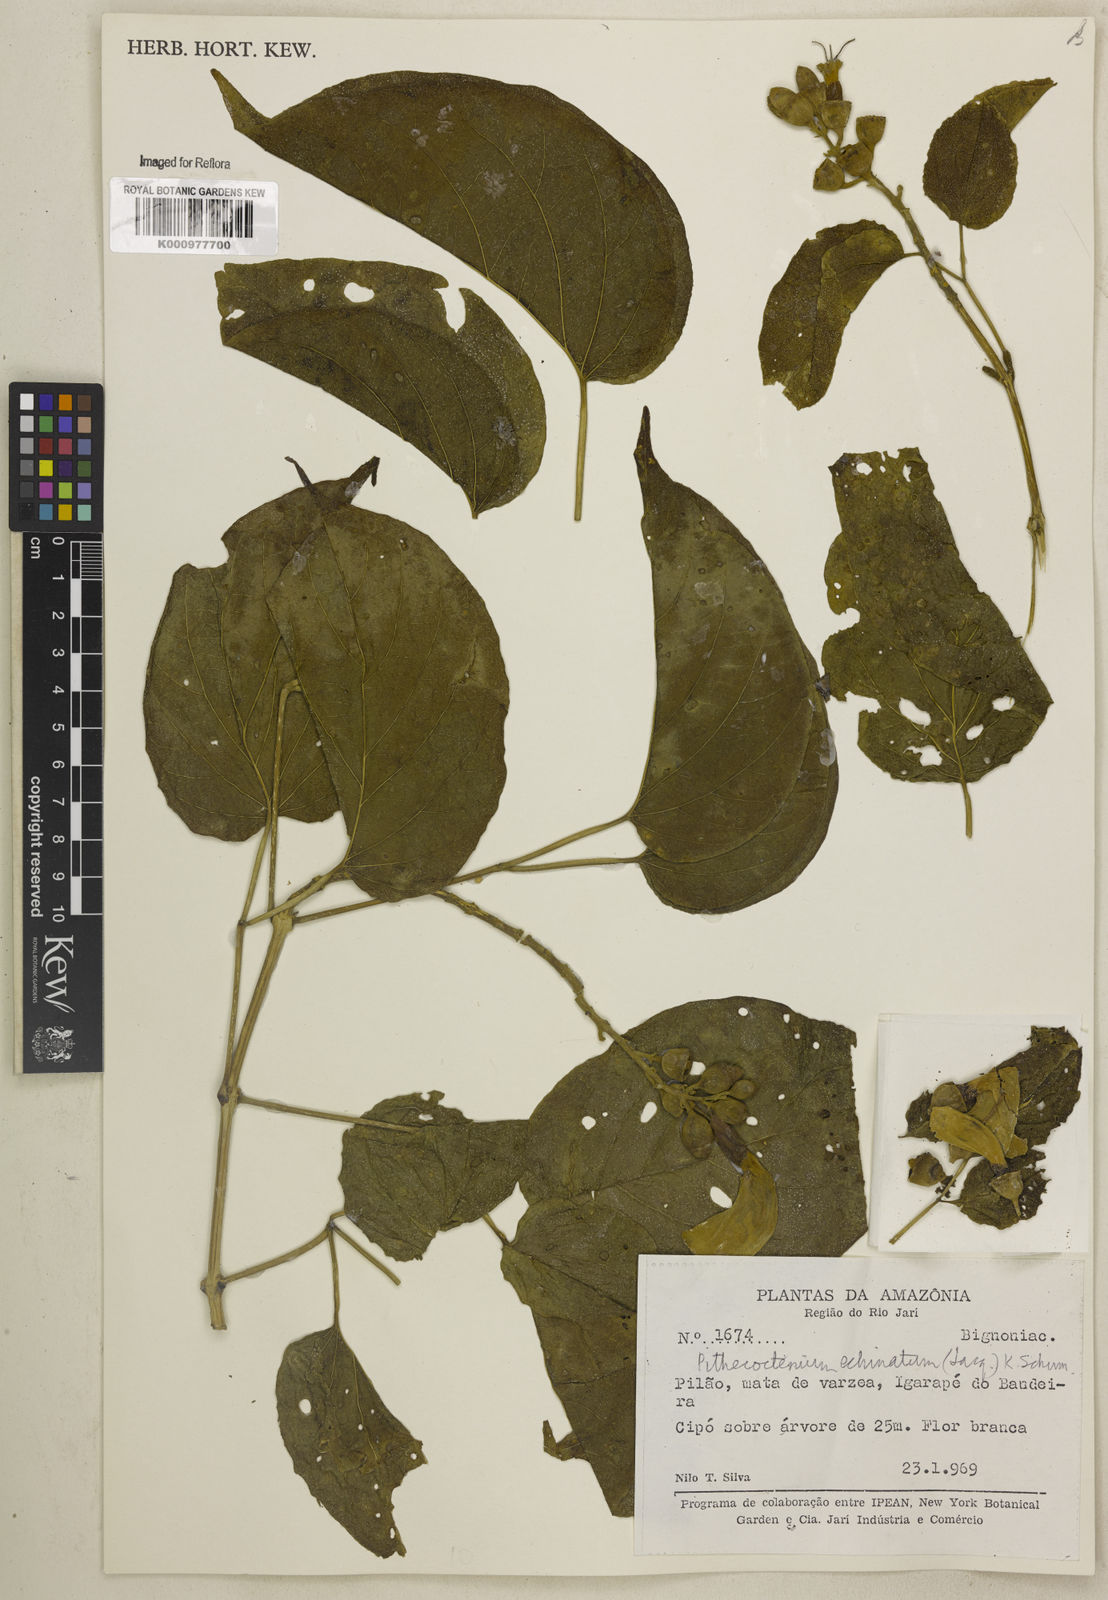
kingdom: Plantae
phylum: Tracheophyta
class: Magnoliopsida
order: Lamiales
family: Bignoniaceae
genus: Amphilophium
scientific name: Amphilophium crucigerum
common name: Monkey comb
